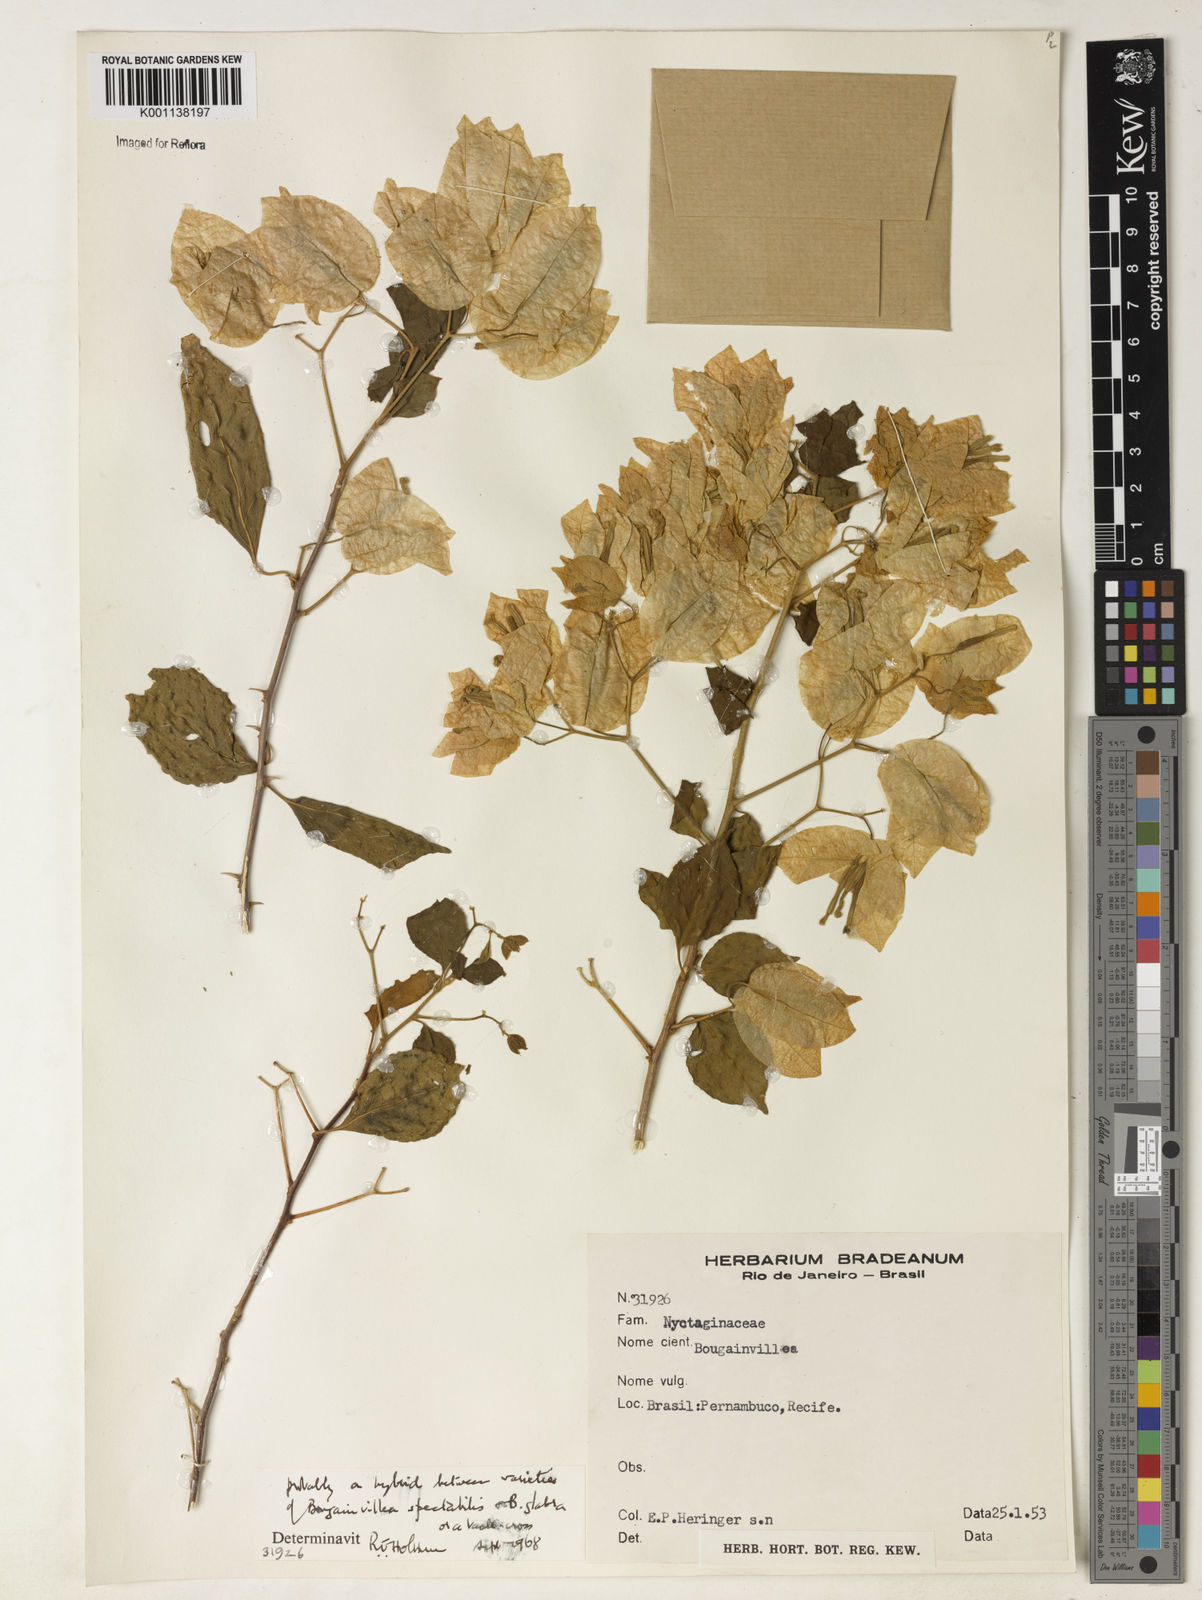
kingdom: Plantae
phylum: Tracheophyta
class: Magnoliopsida
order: Caryophyllales
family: Nyctaginaceae
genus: Bougainvillea
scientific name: Bougainvillea glabra
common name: Paperflower
